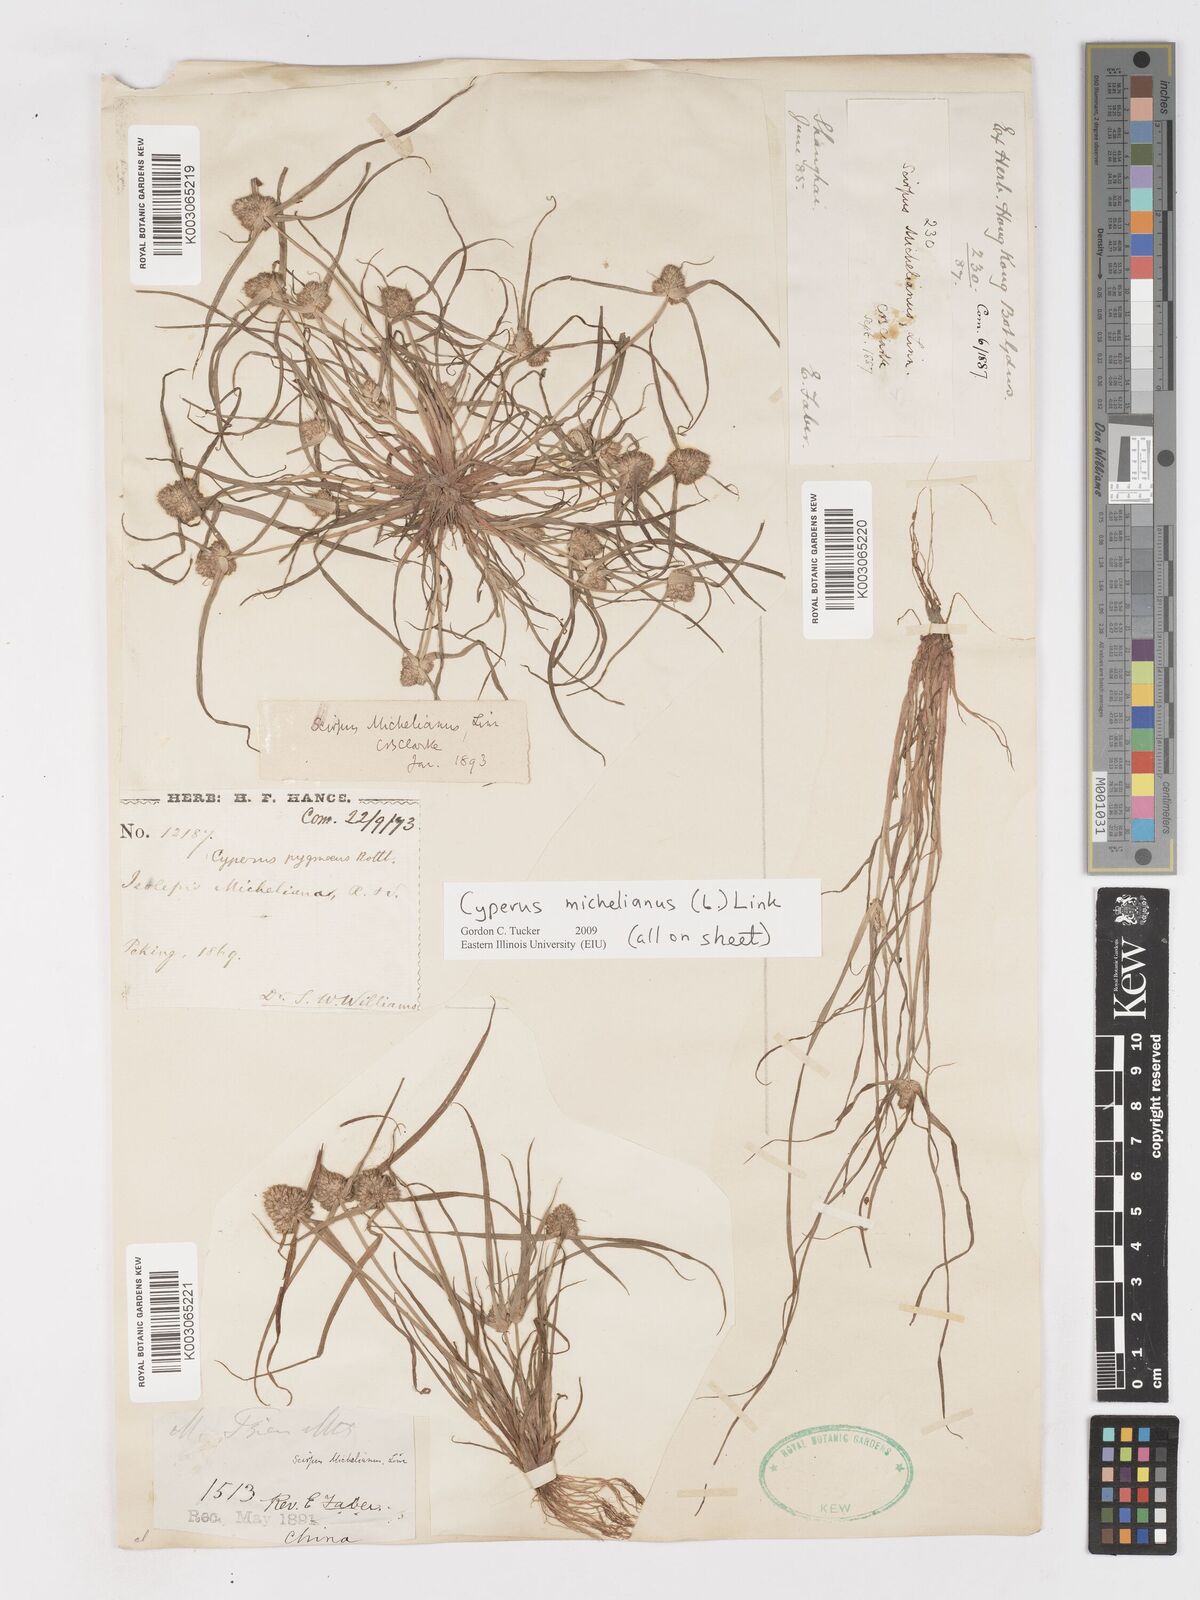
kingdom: Plantae
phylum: Tracheophyta
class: Liliopsida
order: Poales
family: Cyperaceae
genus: Cyperus
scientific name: Cyperus michelianus
